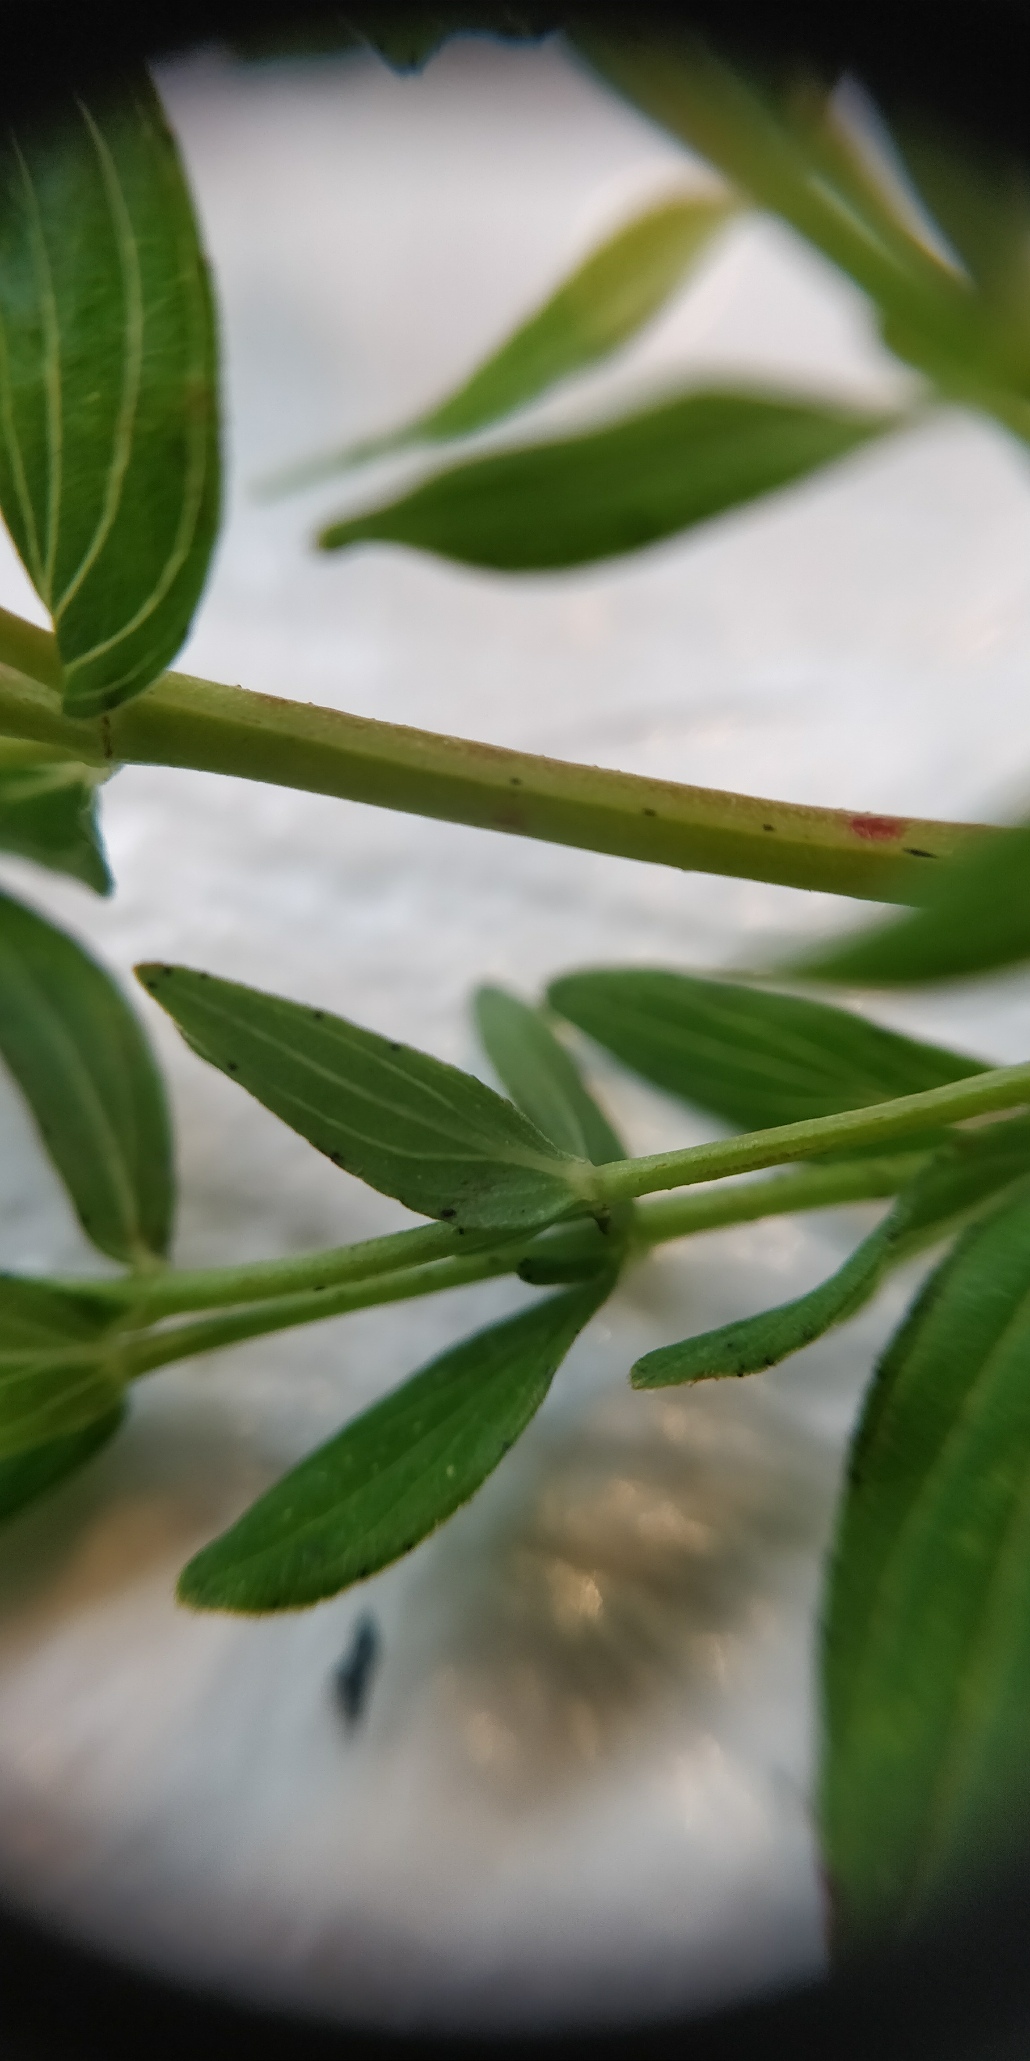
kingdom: Plantae
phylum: Tracheophyta
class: Magnoliopsida
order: Malpighiales
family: Hypericaceae
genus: Hypericum
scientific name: Hypericum perforatum
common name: Prikbladet perikon
